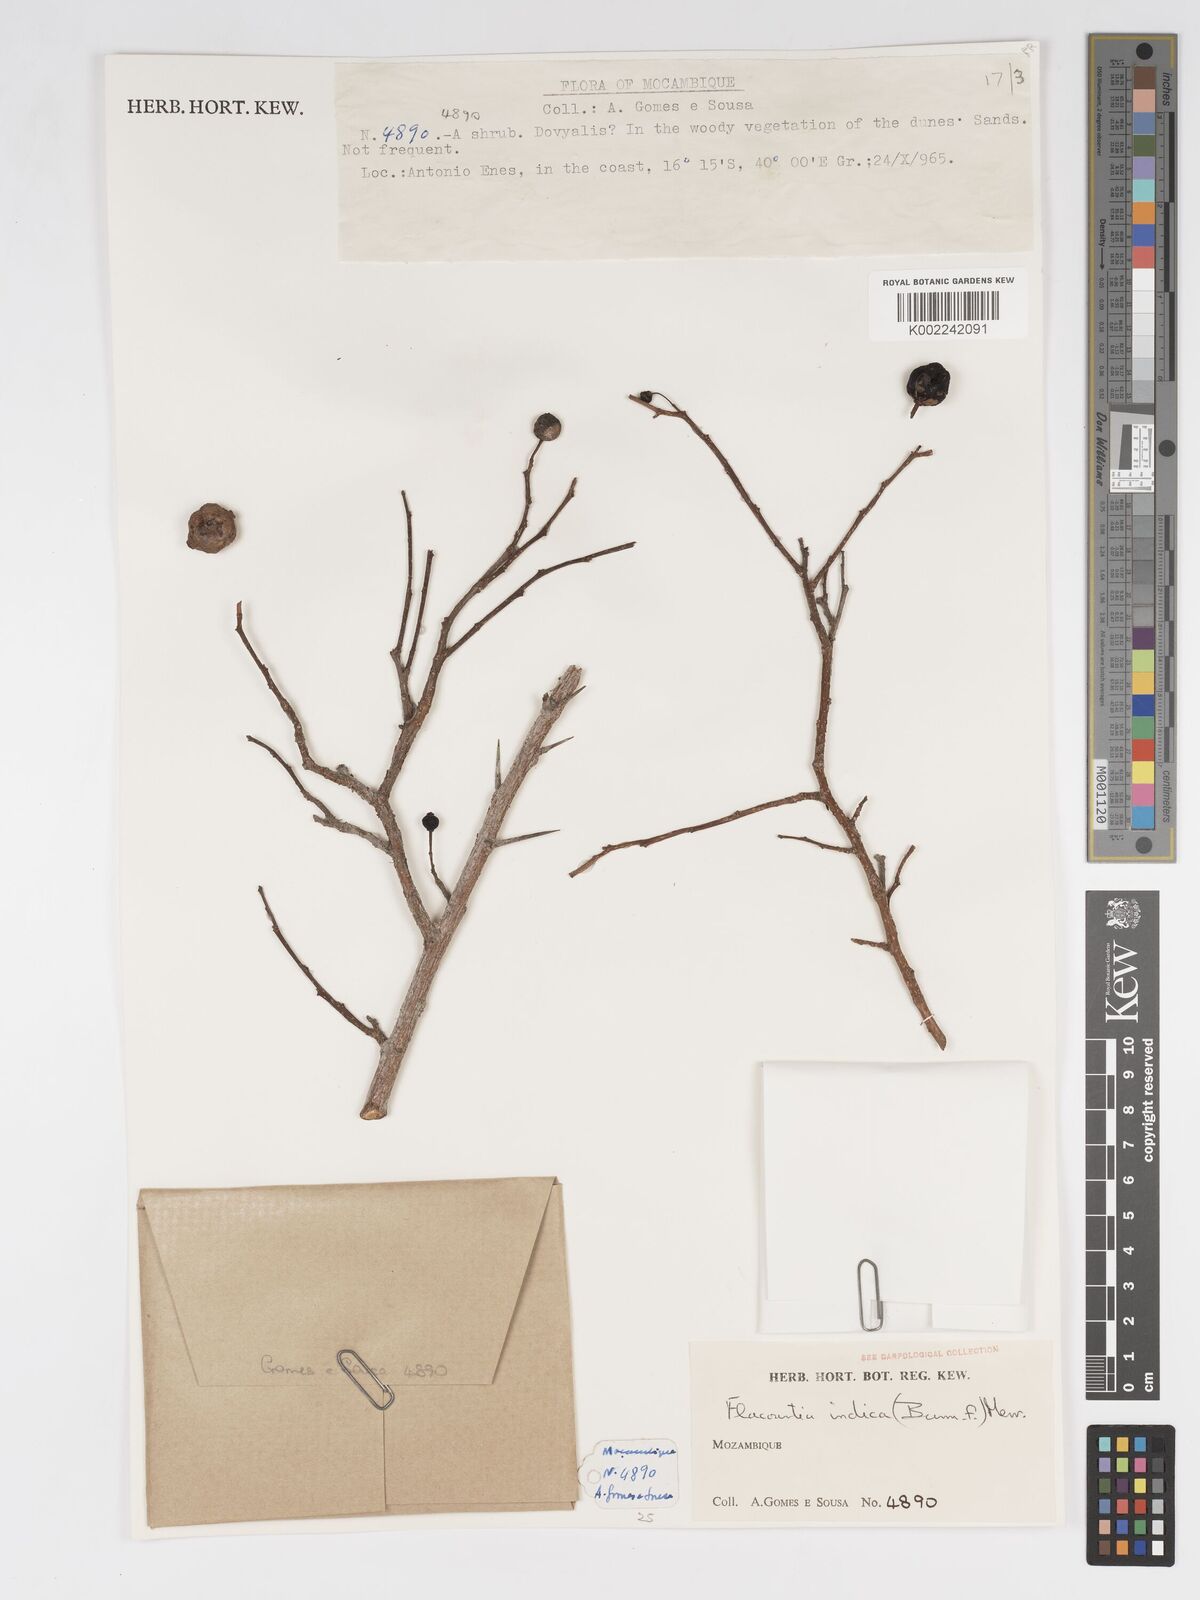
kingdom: Plantae
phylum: Tracheophyta
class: Magnoliopsida
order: Malpighiales
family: Salicaceae
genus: Flacourtia
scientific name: Flacourtia indica
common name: Governor's plum
